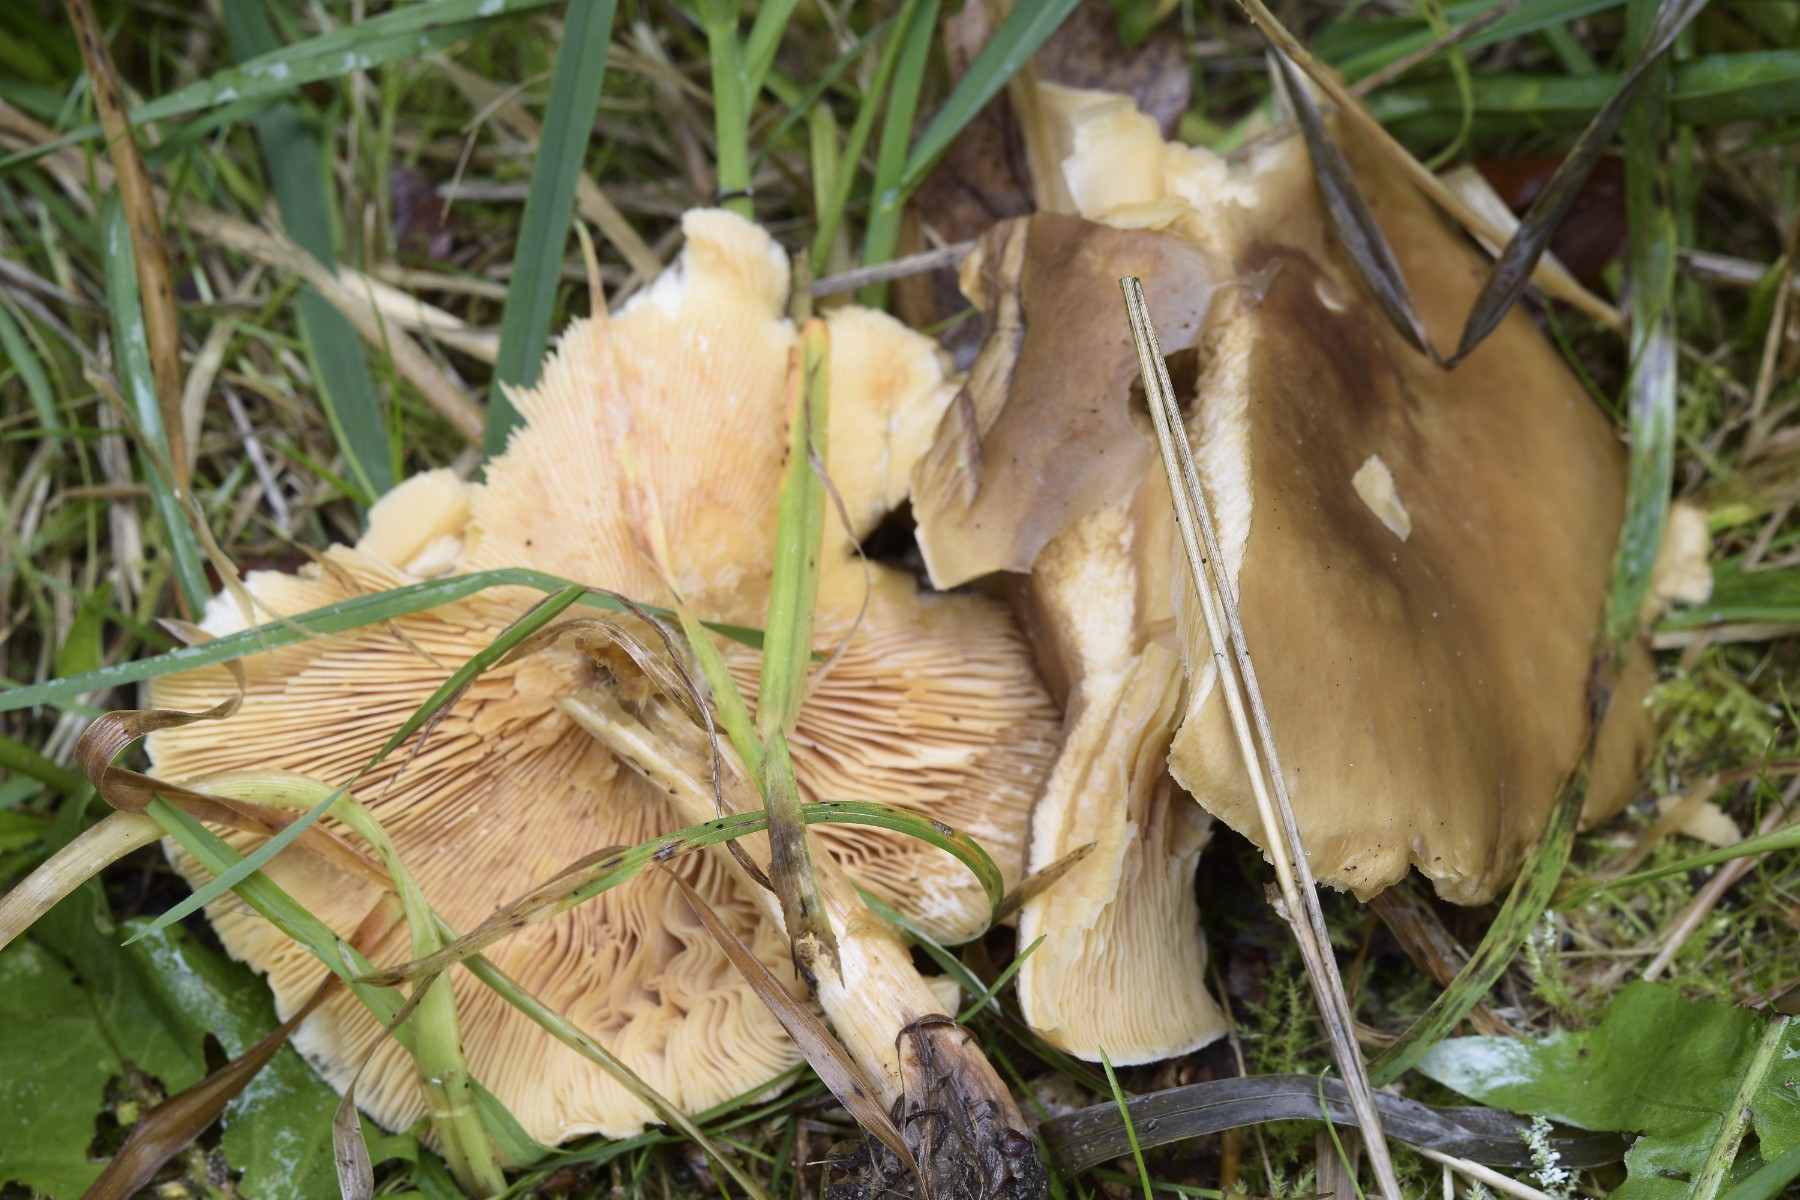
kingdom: Fungi
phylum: Basidiomycota
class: Agaricomycetes
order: Agaricales
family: Tricholomataceae
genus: Melanoleuca
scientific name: Melanoleuca cognata
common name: gyldengrå munkehat
